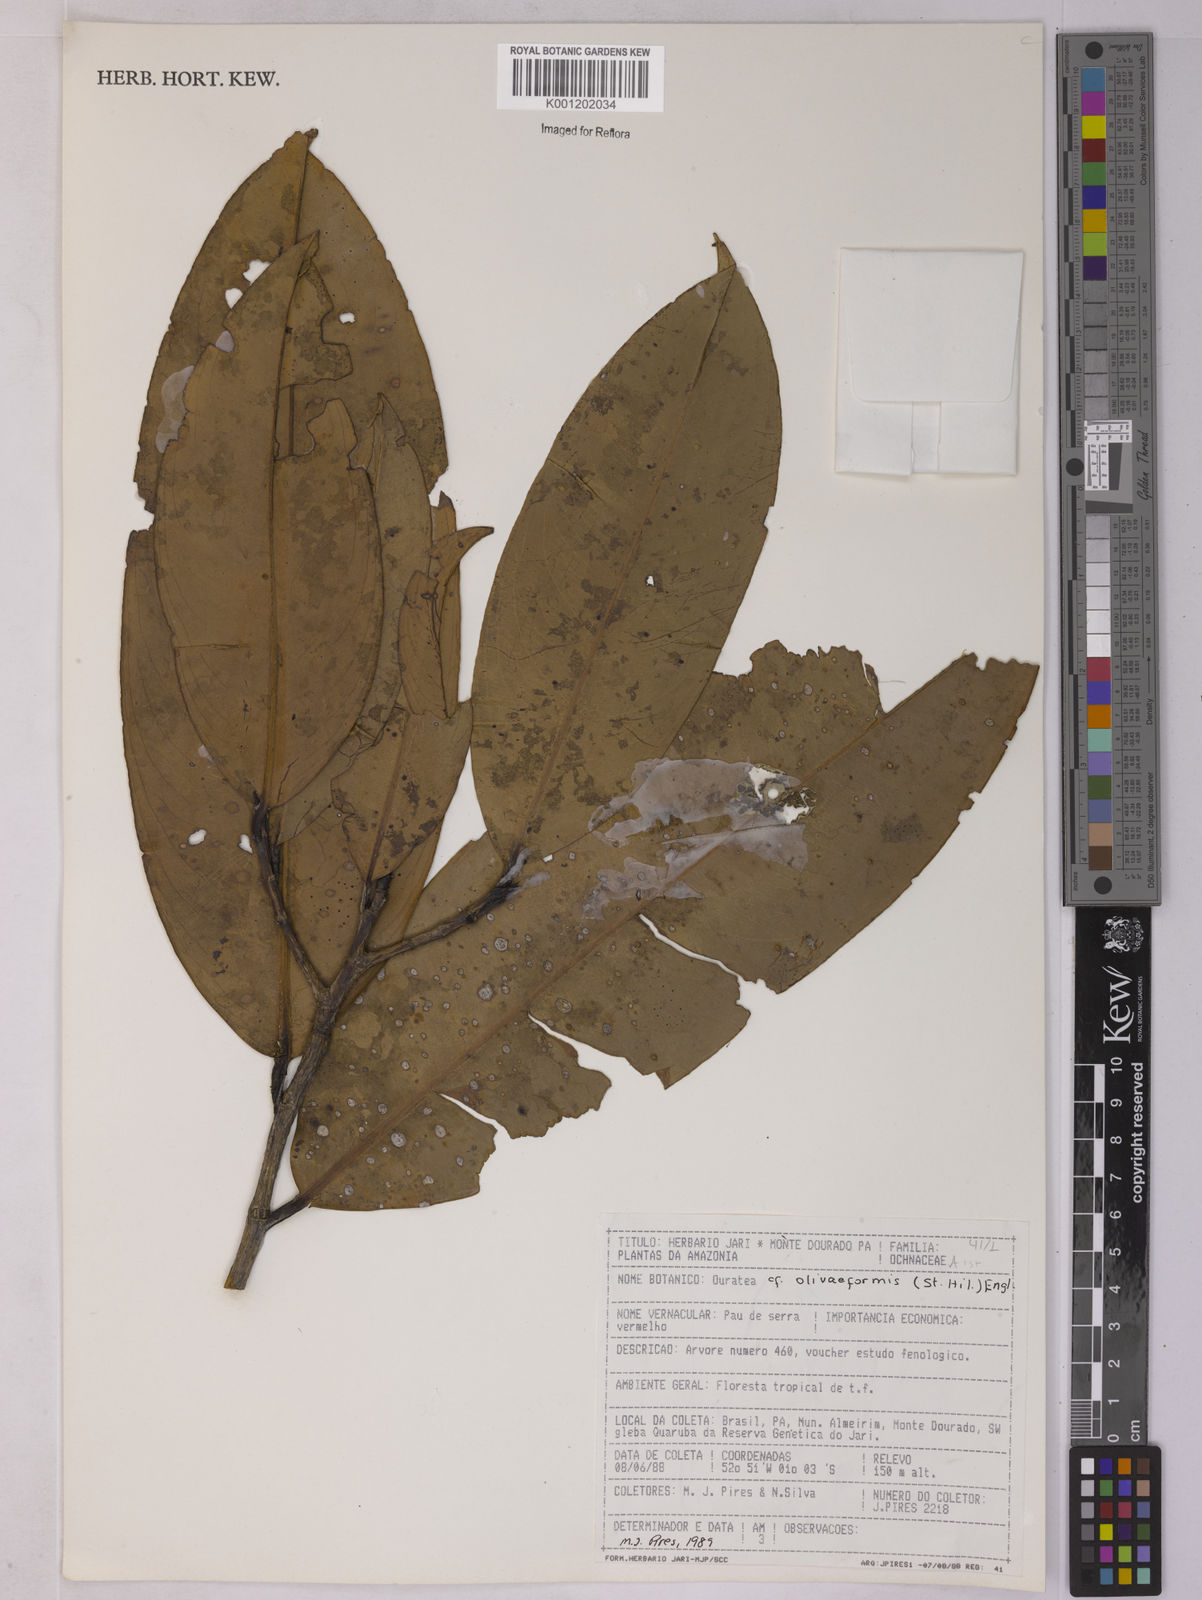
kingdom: Plantae
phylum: Tracheophyta
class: Magnoliopsida
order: Malpighiales
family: Ochnaceae
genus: Ouratea
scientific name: Ouratea oliviformis
